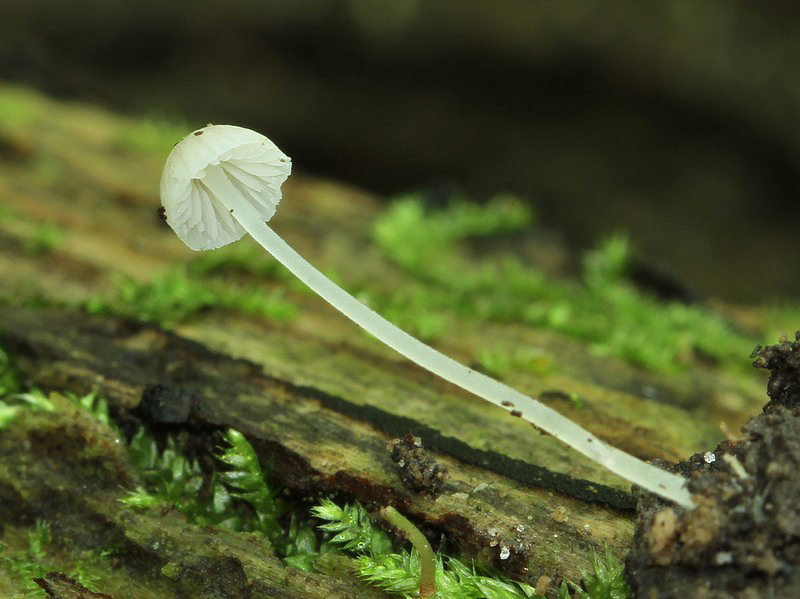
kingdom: Fungi
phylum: Basidiomycota
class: Agaricomycetes
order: Agaricales
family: Porotheleaceae
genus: Phloeomana
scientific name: Phloeomana hiemalis
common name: sen huesvamp
